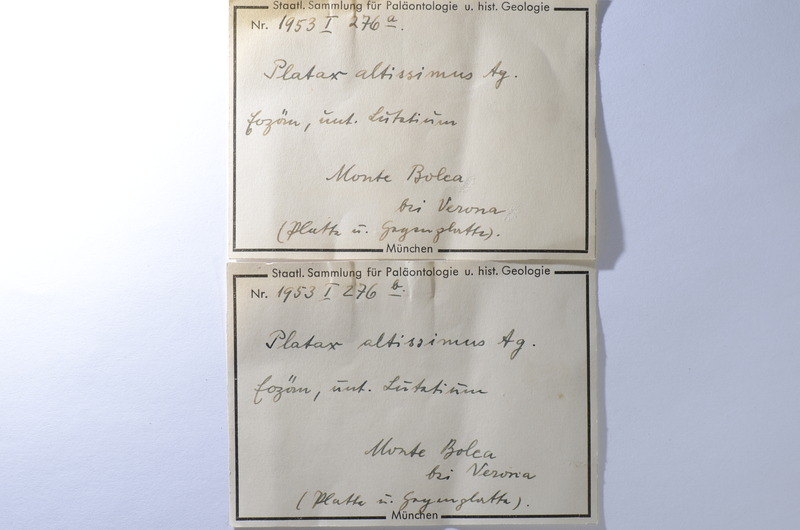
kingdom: Animalia
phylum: Chordata
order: Perciformes
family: Ephippidae
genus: Platax
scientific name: Platax altissimus
